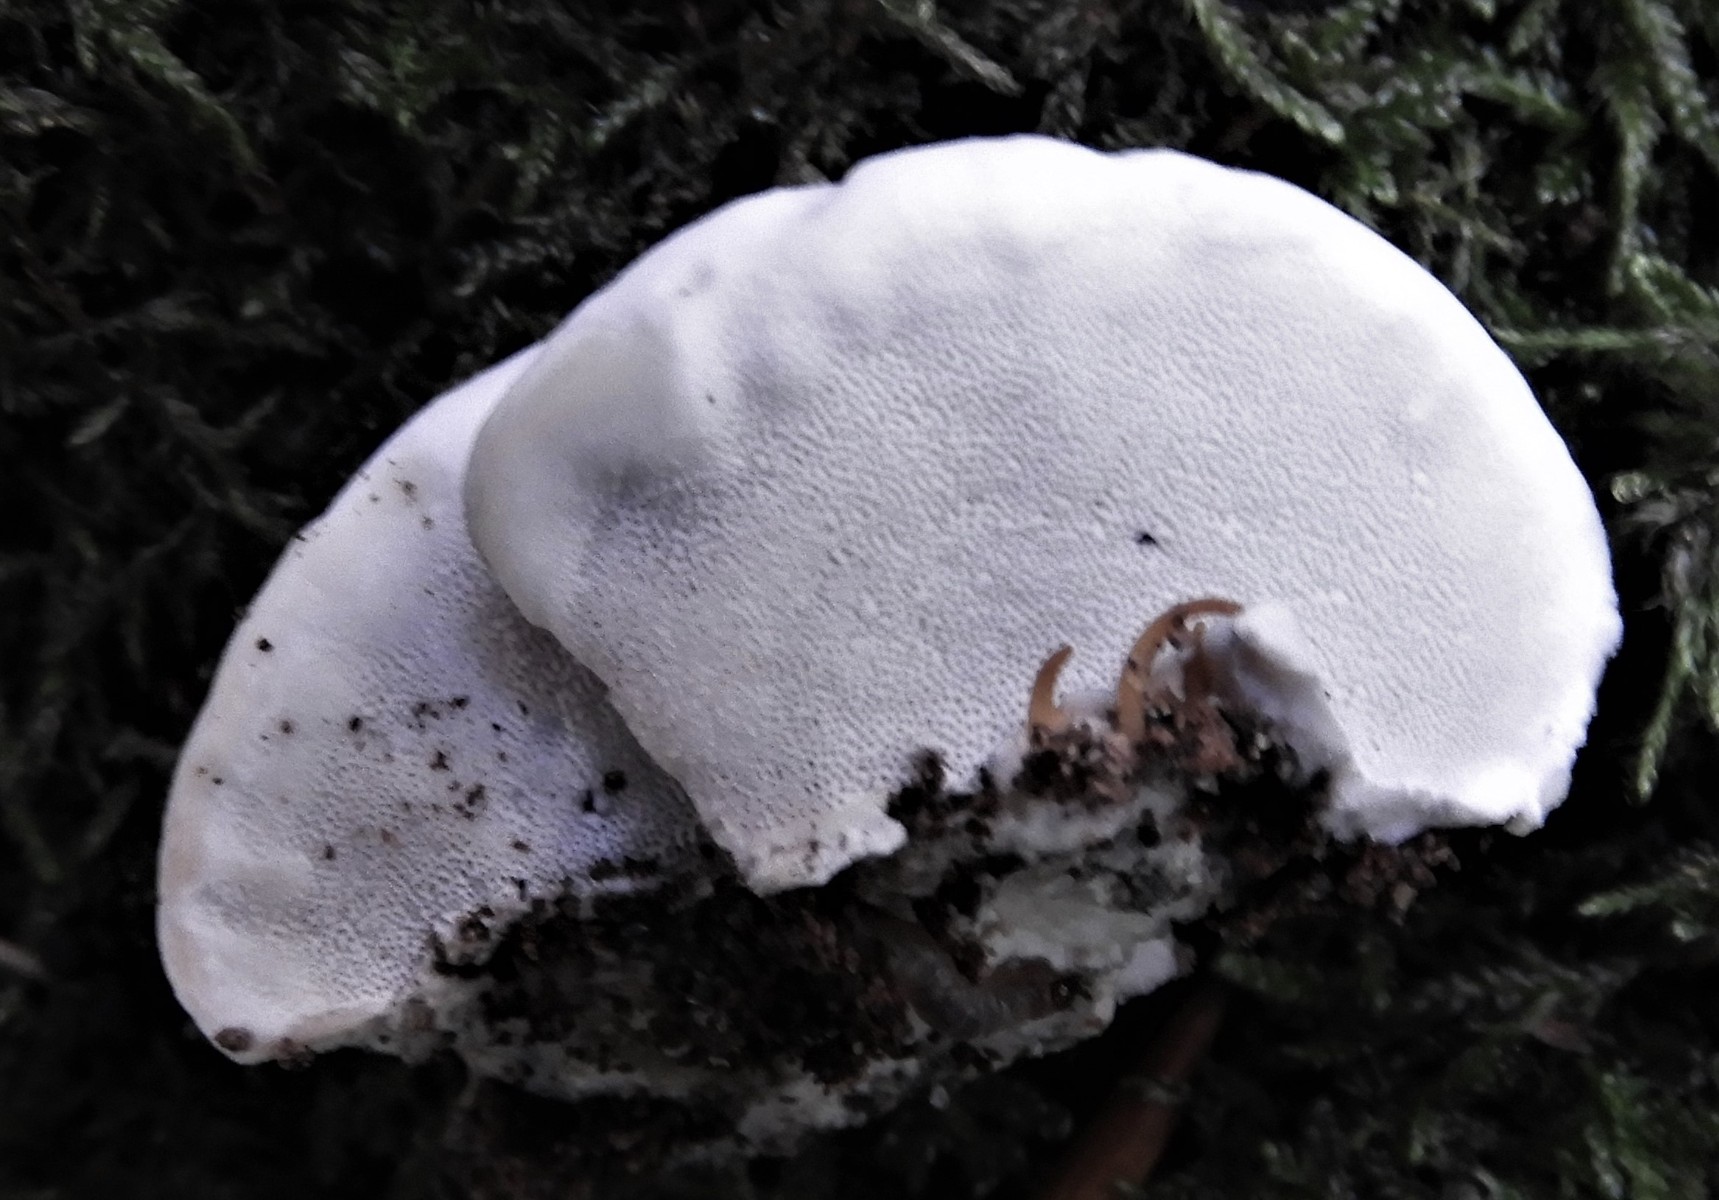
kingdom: Fungi
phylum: Basidiomycota
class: Agaricomycetes
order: Polyporales
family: Polyporaceae
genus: Cyanosporus
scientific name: Cyanosporus caesius
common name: blålig kødporesvamp
